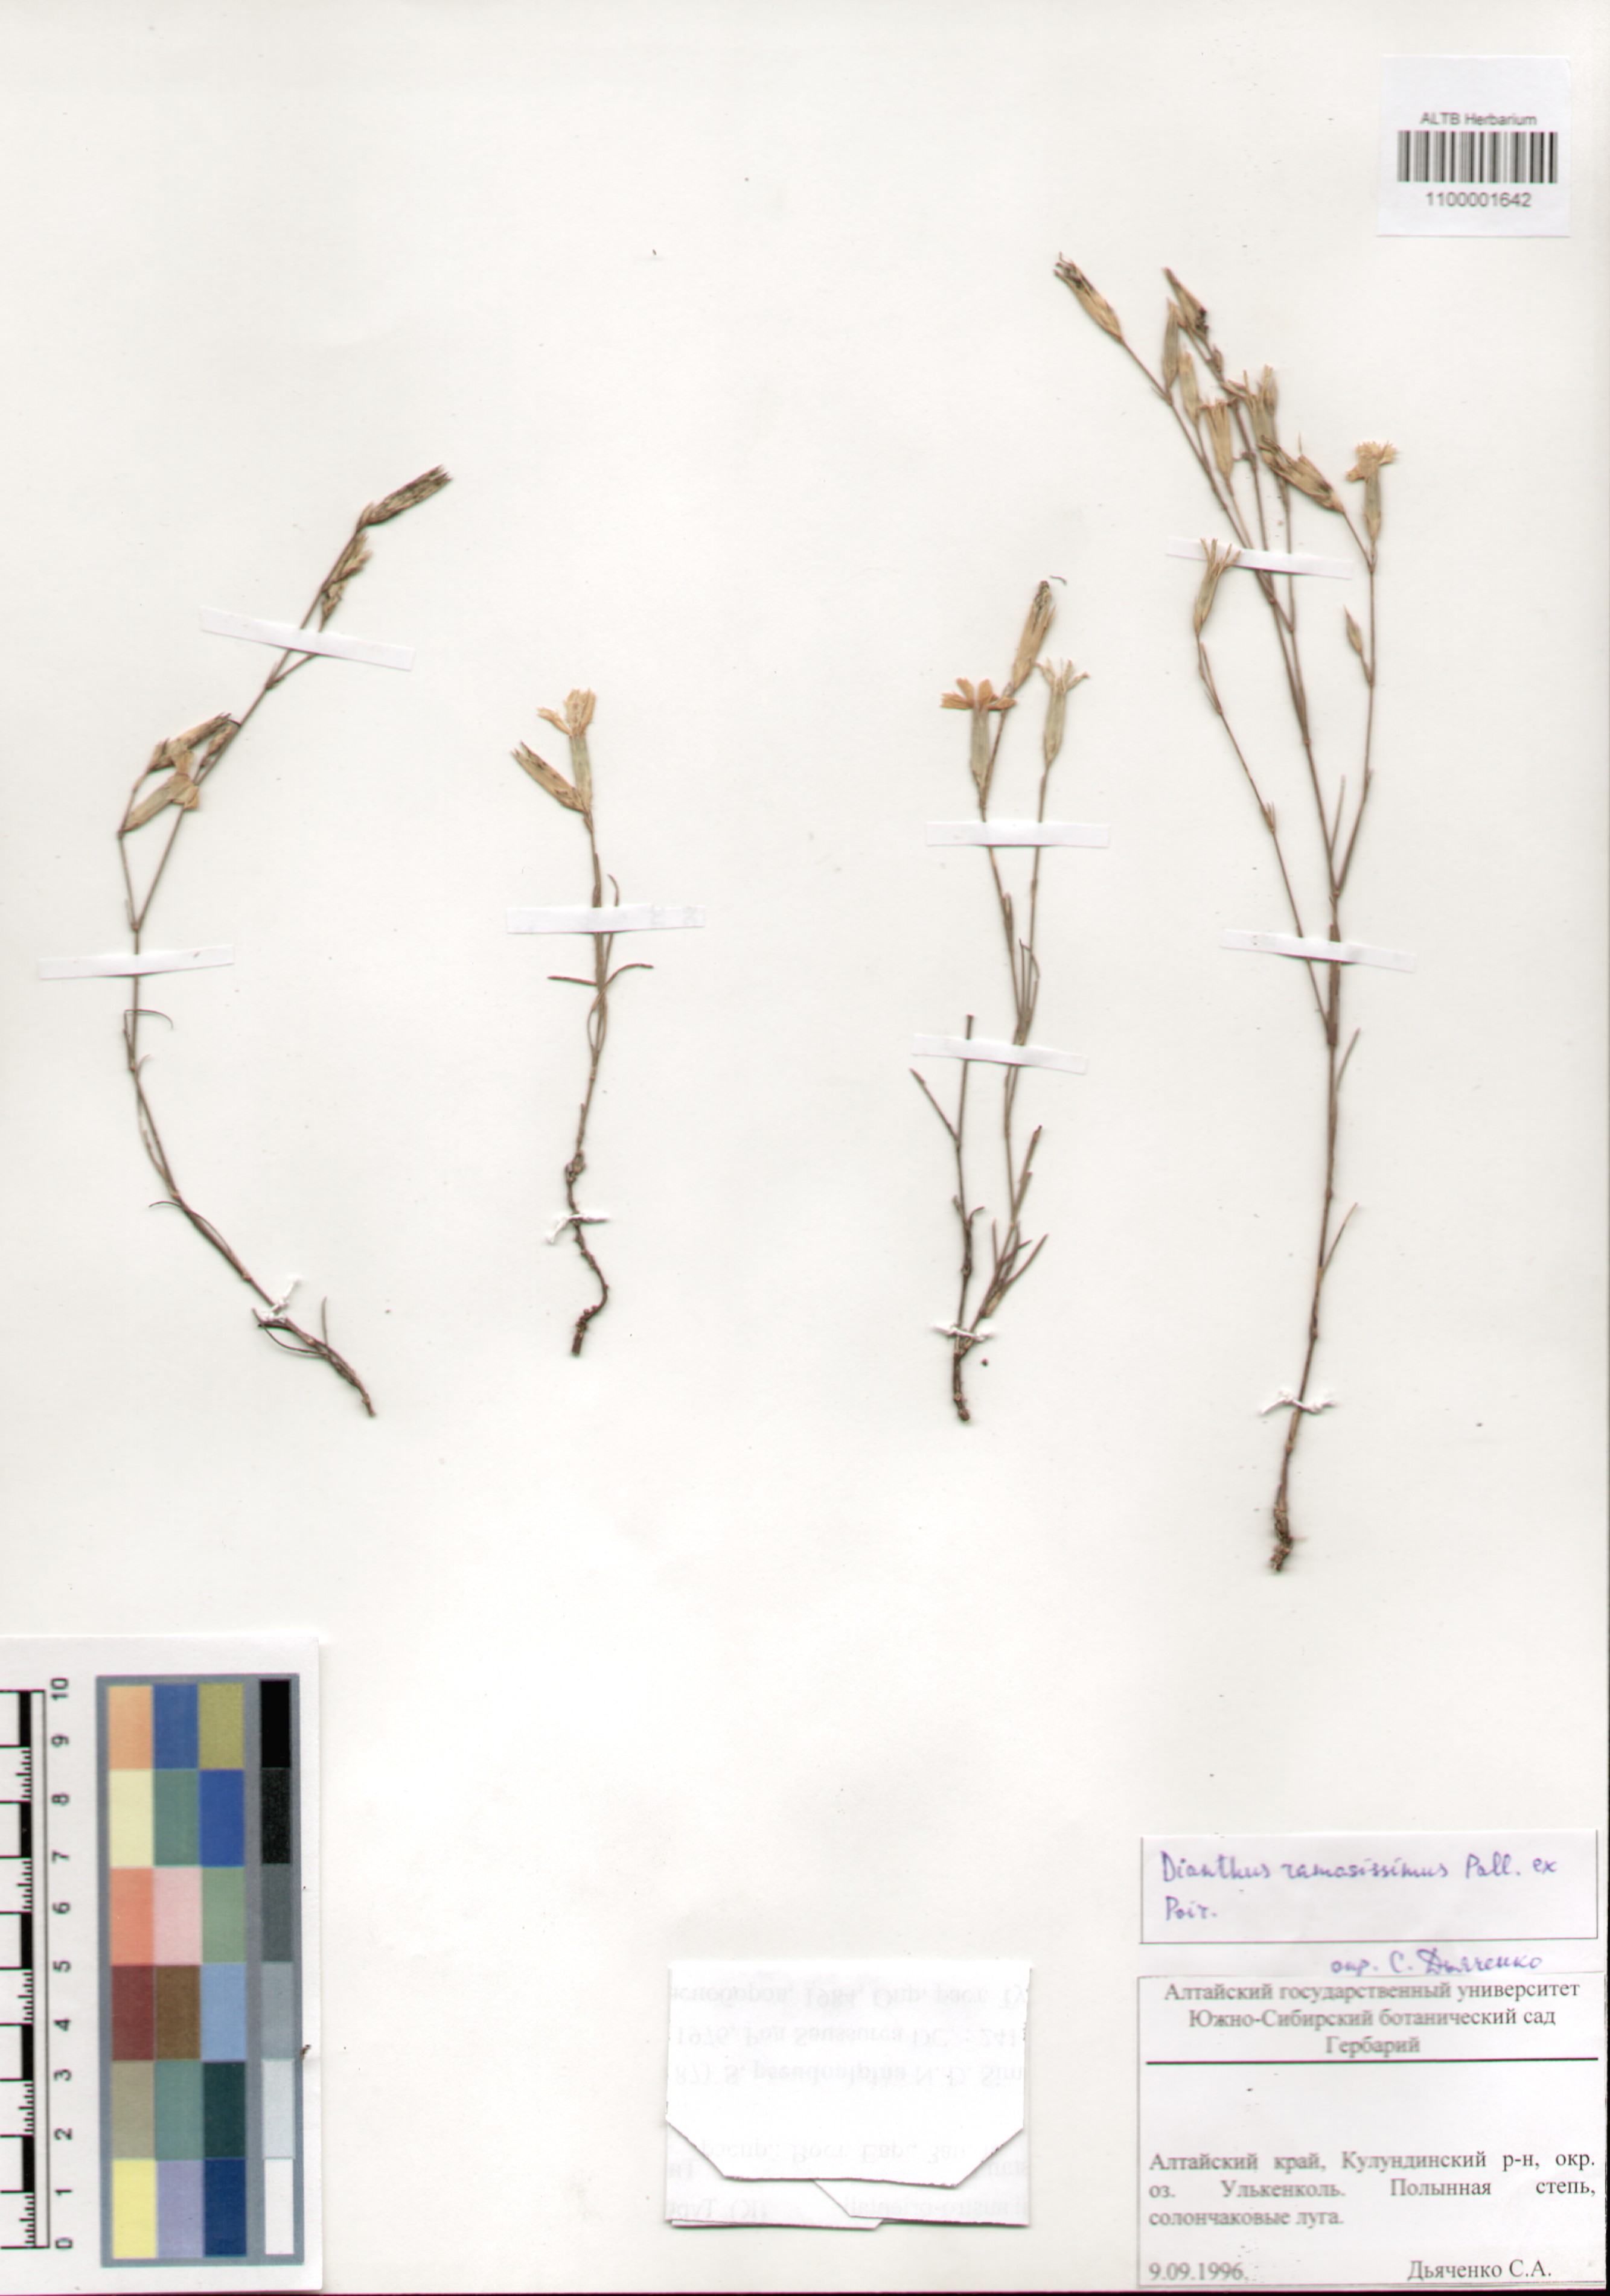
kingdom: Plantae
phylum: Tracheophyta
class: Magnoliopsida
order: Caryophyllales
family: Caryophyllaceae
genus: Dianthus
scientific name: Dianthus ramosissimus
